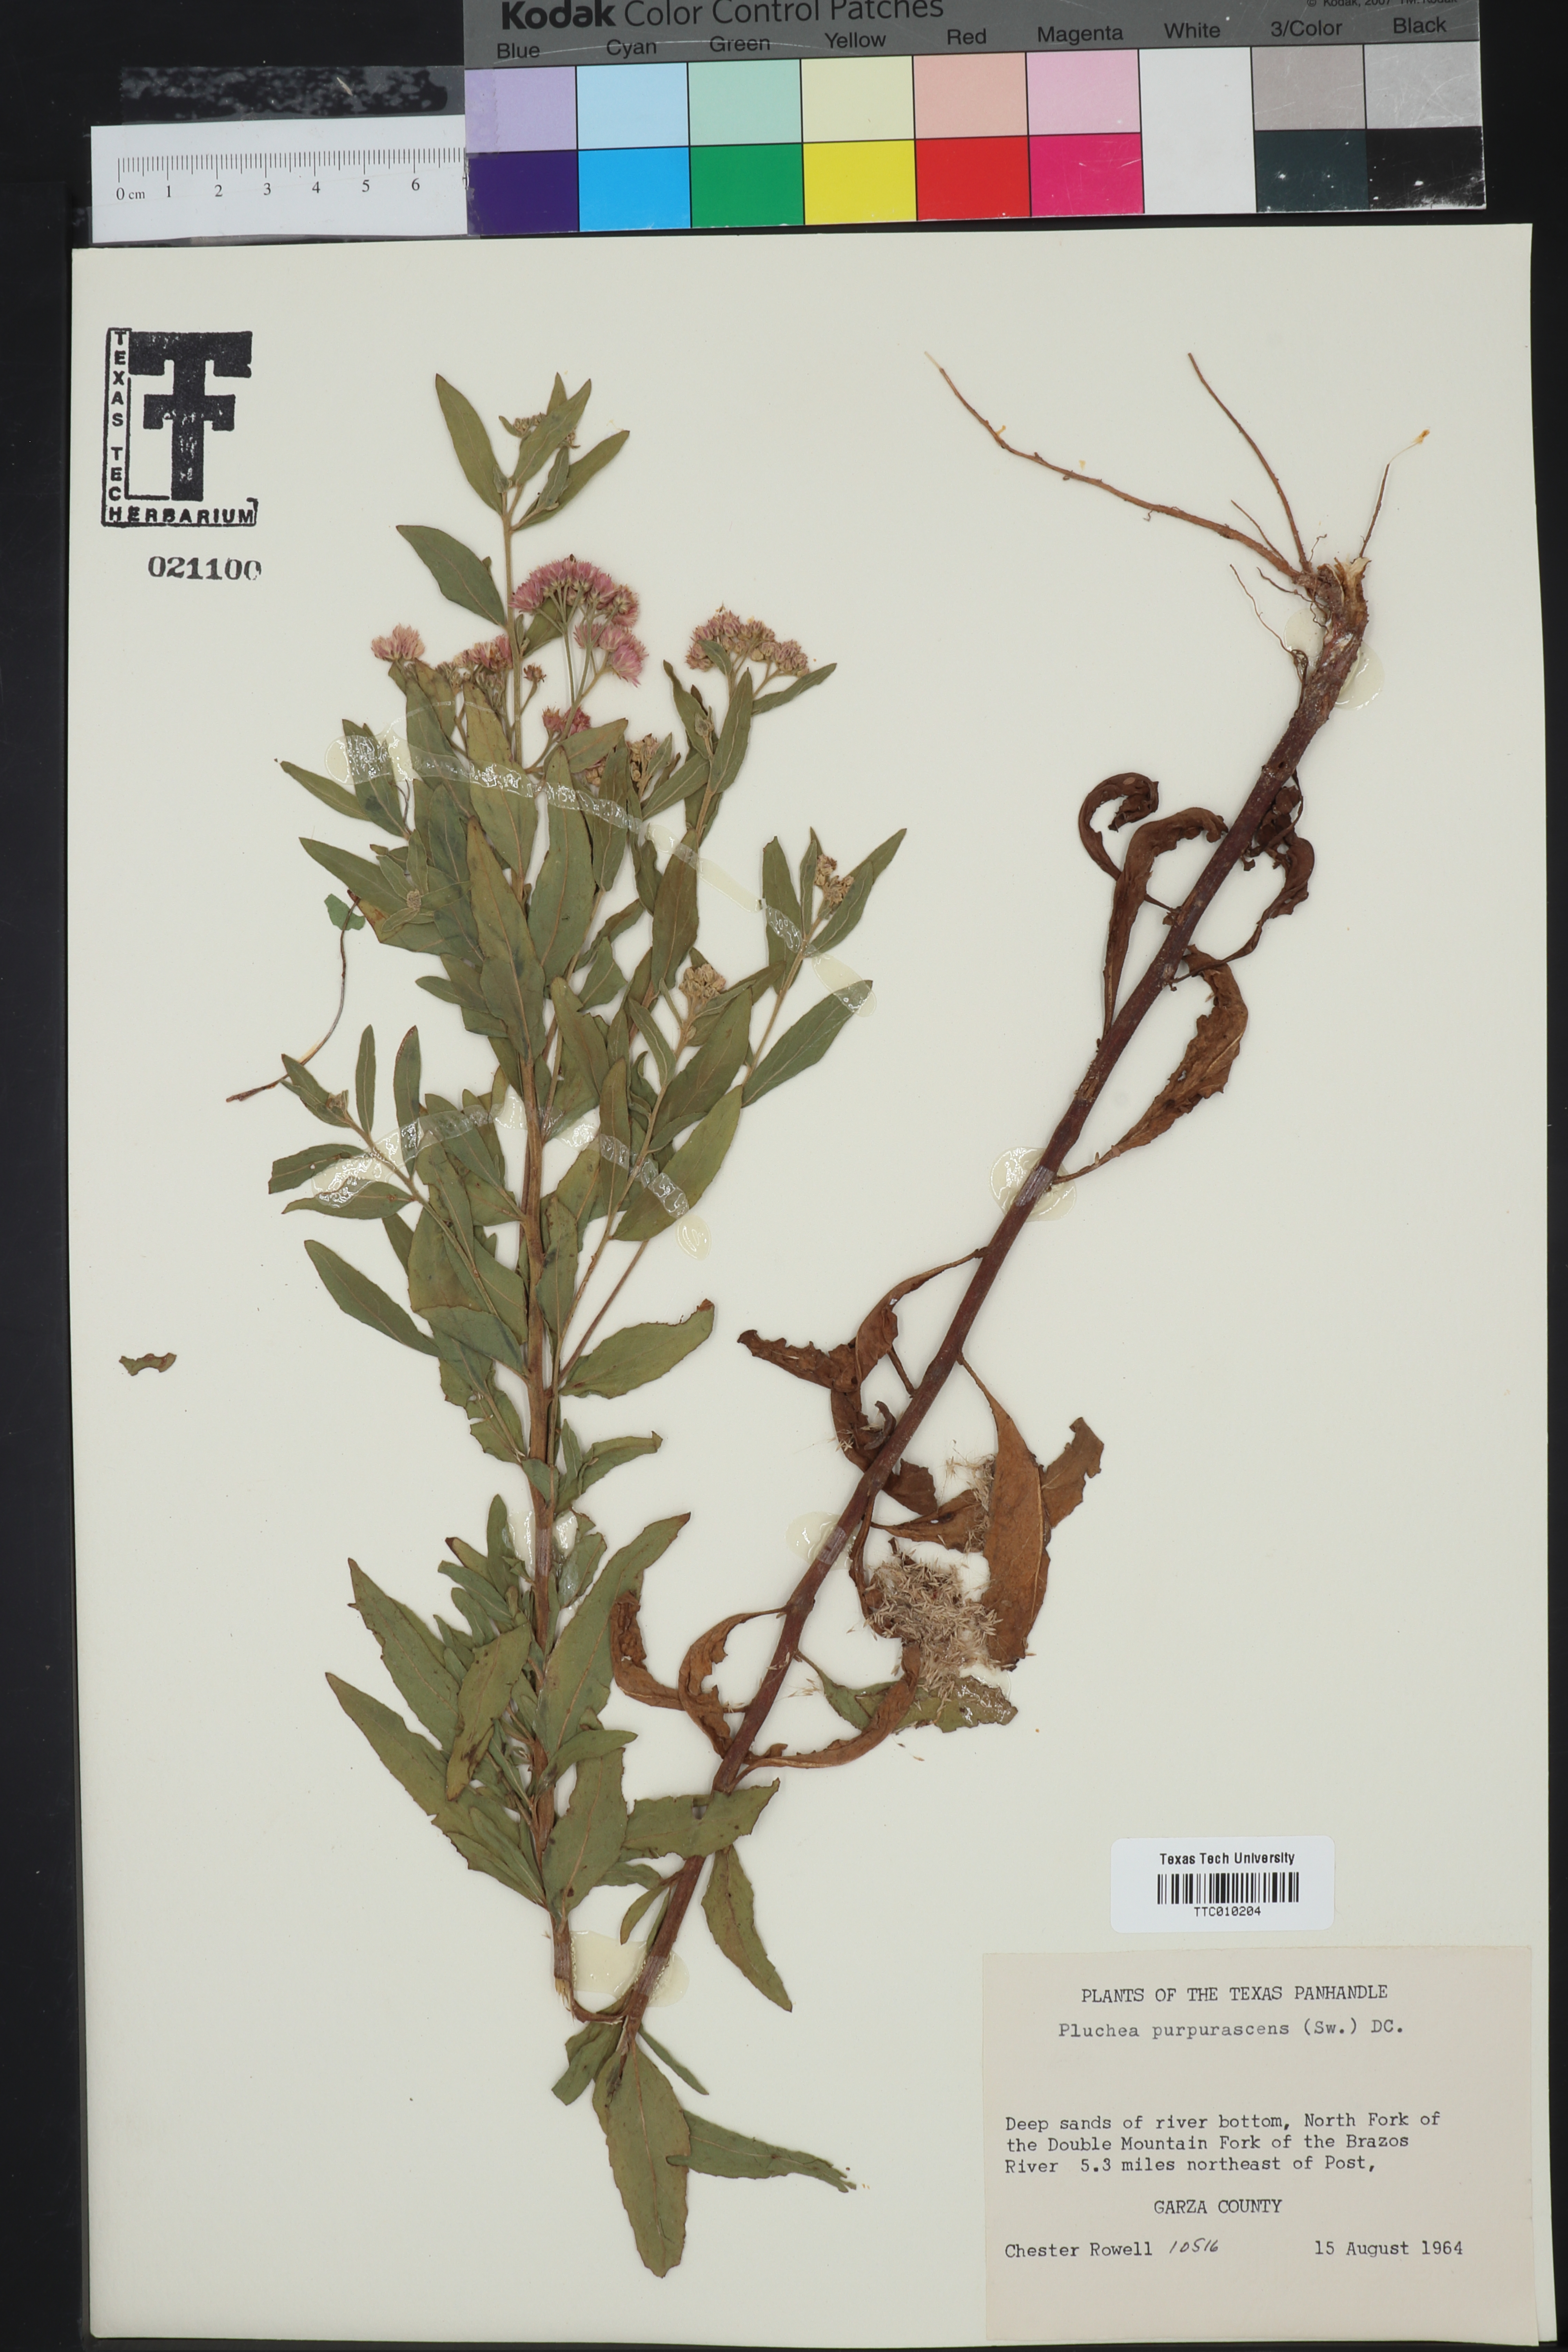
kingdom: Plantae
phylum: Tracheophyta
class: Magnoliopsida
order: Asterales
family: Asteraceae
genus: Pluchea
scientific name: Pluchea odorata
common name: Saltmarsh fleabane
